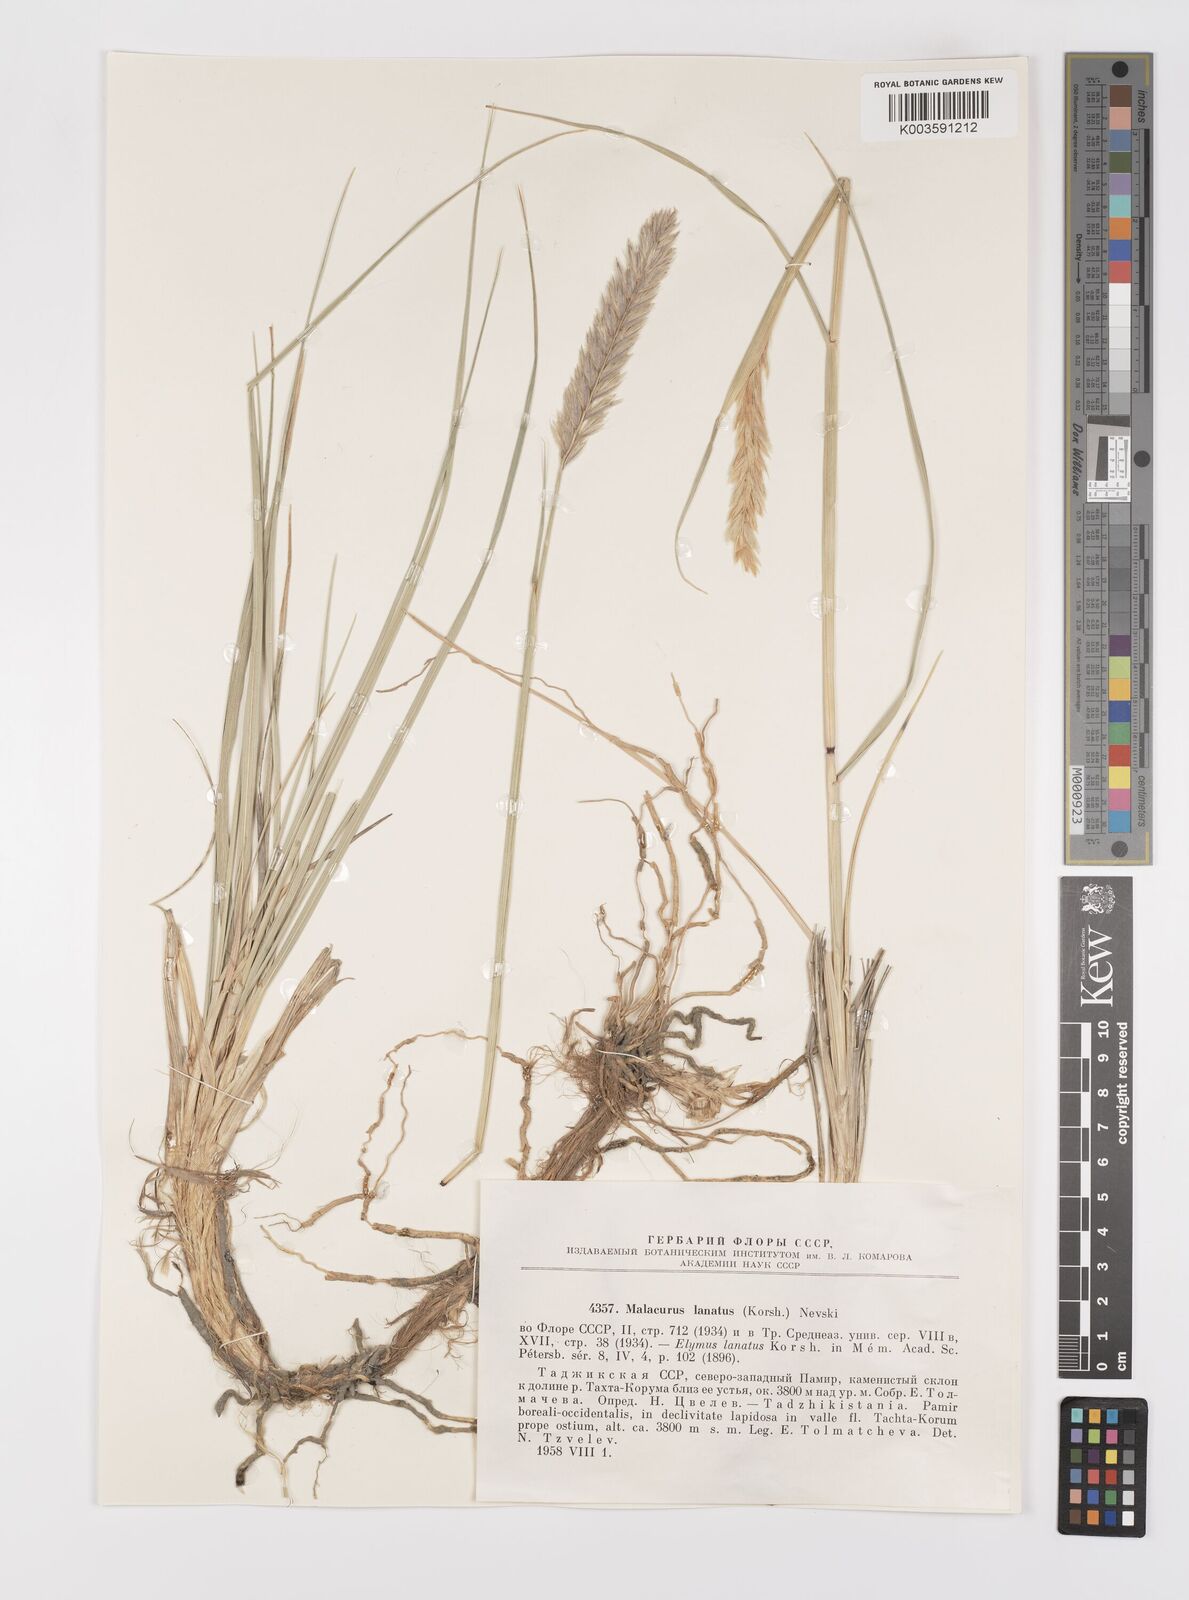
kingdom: Plantae
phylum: Tracheophyta
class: Liliopsida
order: Poales
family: Poaceae
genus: Leymus
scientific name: Leymus lanatus
